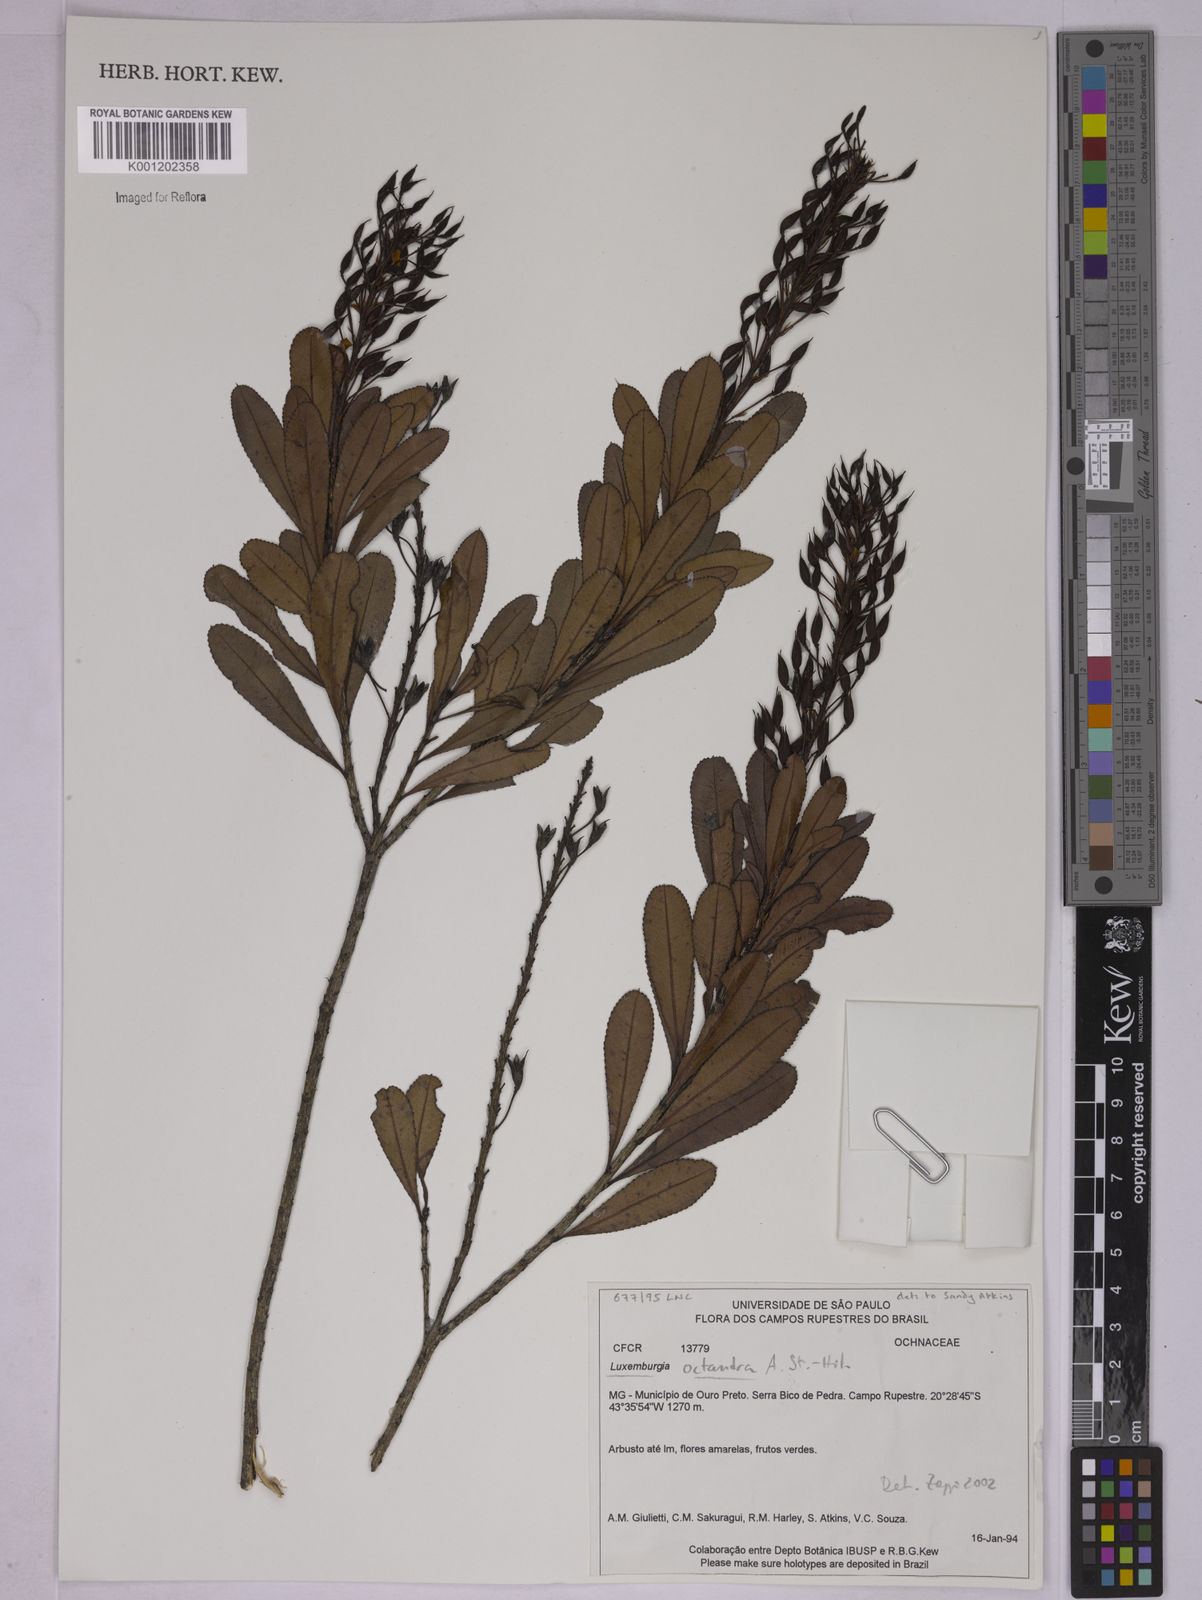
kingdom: Plantae
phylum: Tracheophyta
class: Magnoliopsida
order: Malpighiales
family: Ochnaceae
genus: Luxemburgia
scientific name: Luxemburgia octandra
